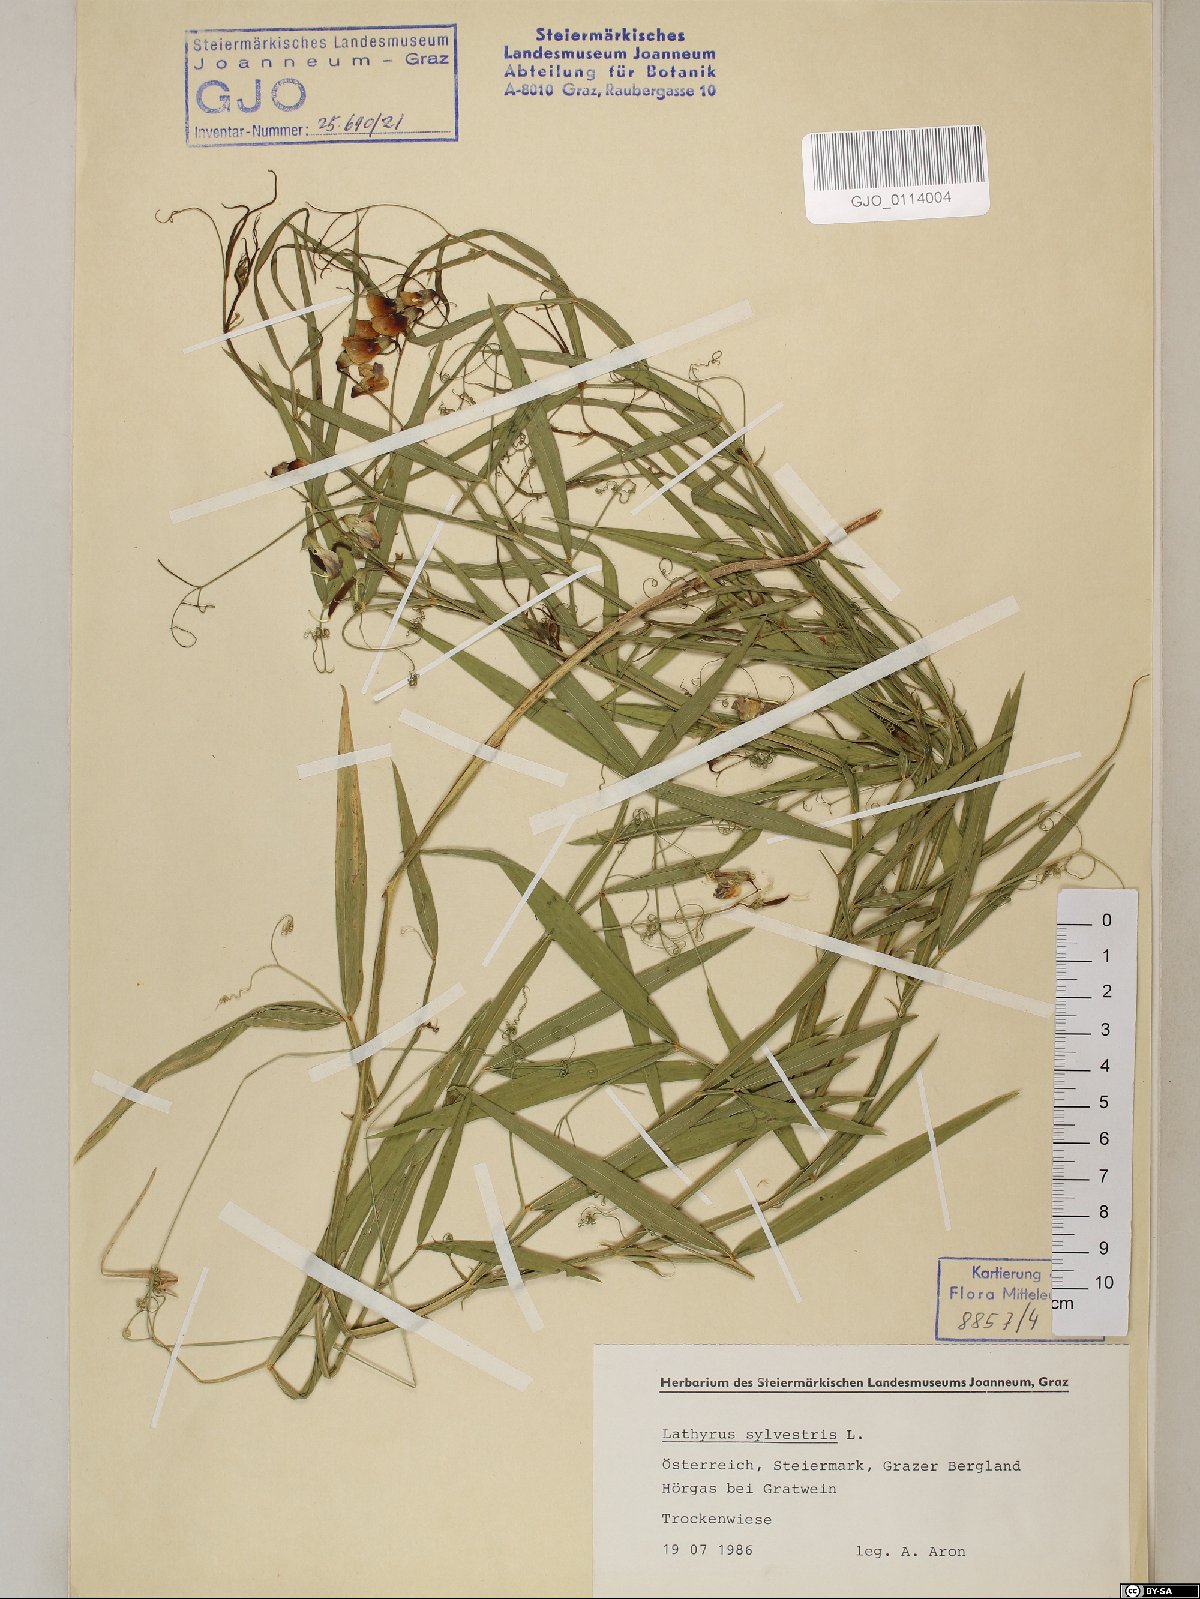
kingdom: Plantae
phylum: Tracheophyta
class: Magnoliopsida
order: Fabales
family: Fabaceae
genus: Lathyrus
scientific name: Lathyrus sylvestris
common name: Flat pea
